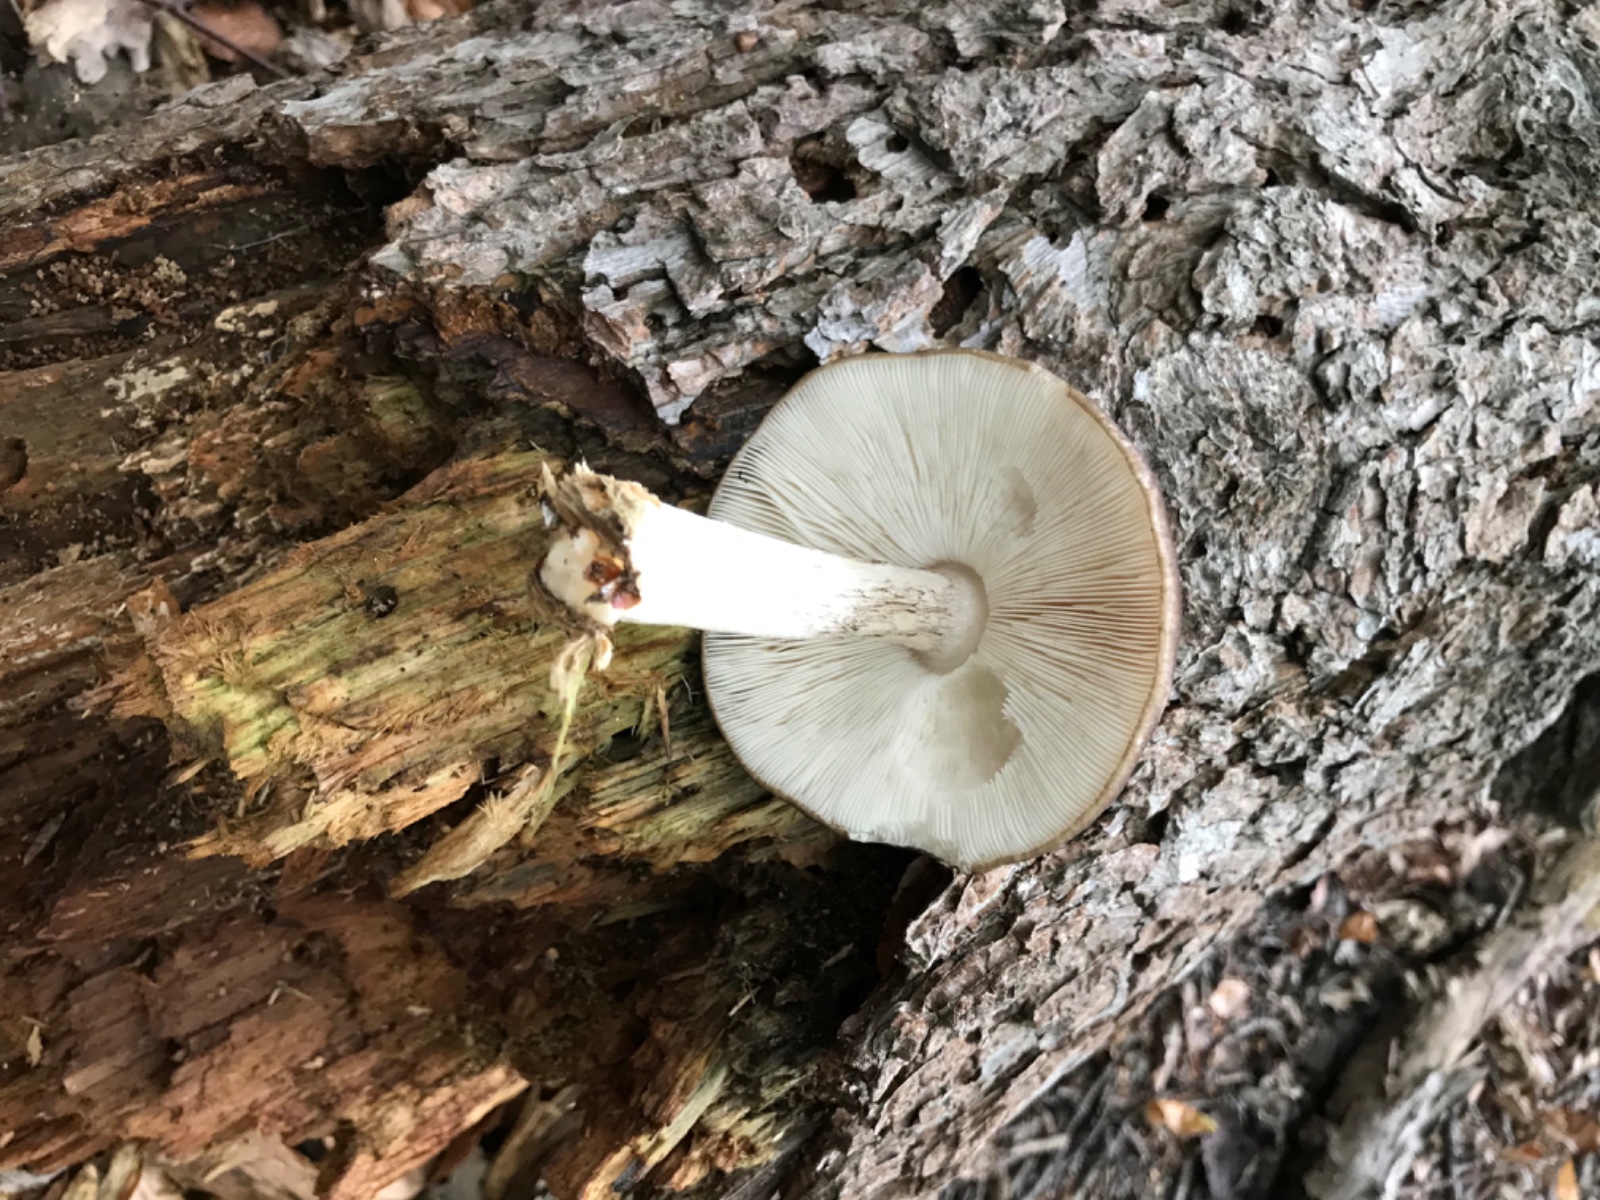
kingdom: Fungi
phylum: Basidiomycota
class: Agaricomycetes
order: Agaricales
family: Pluteaceae
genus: Pluteus
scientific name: Pluteus cervinus
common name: sodfarvet skærmhat
